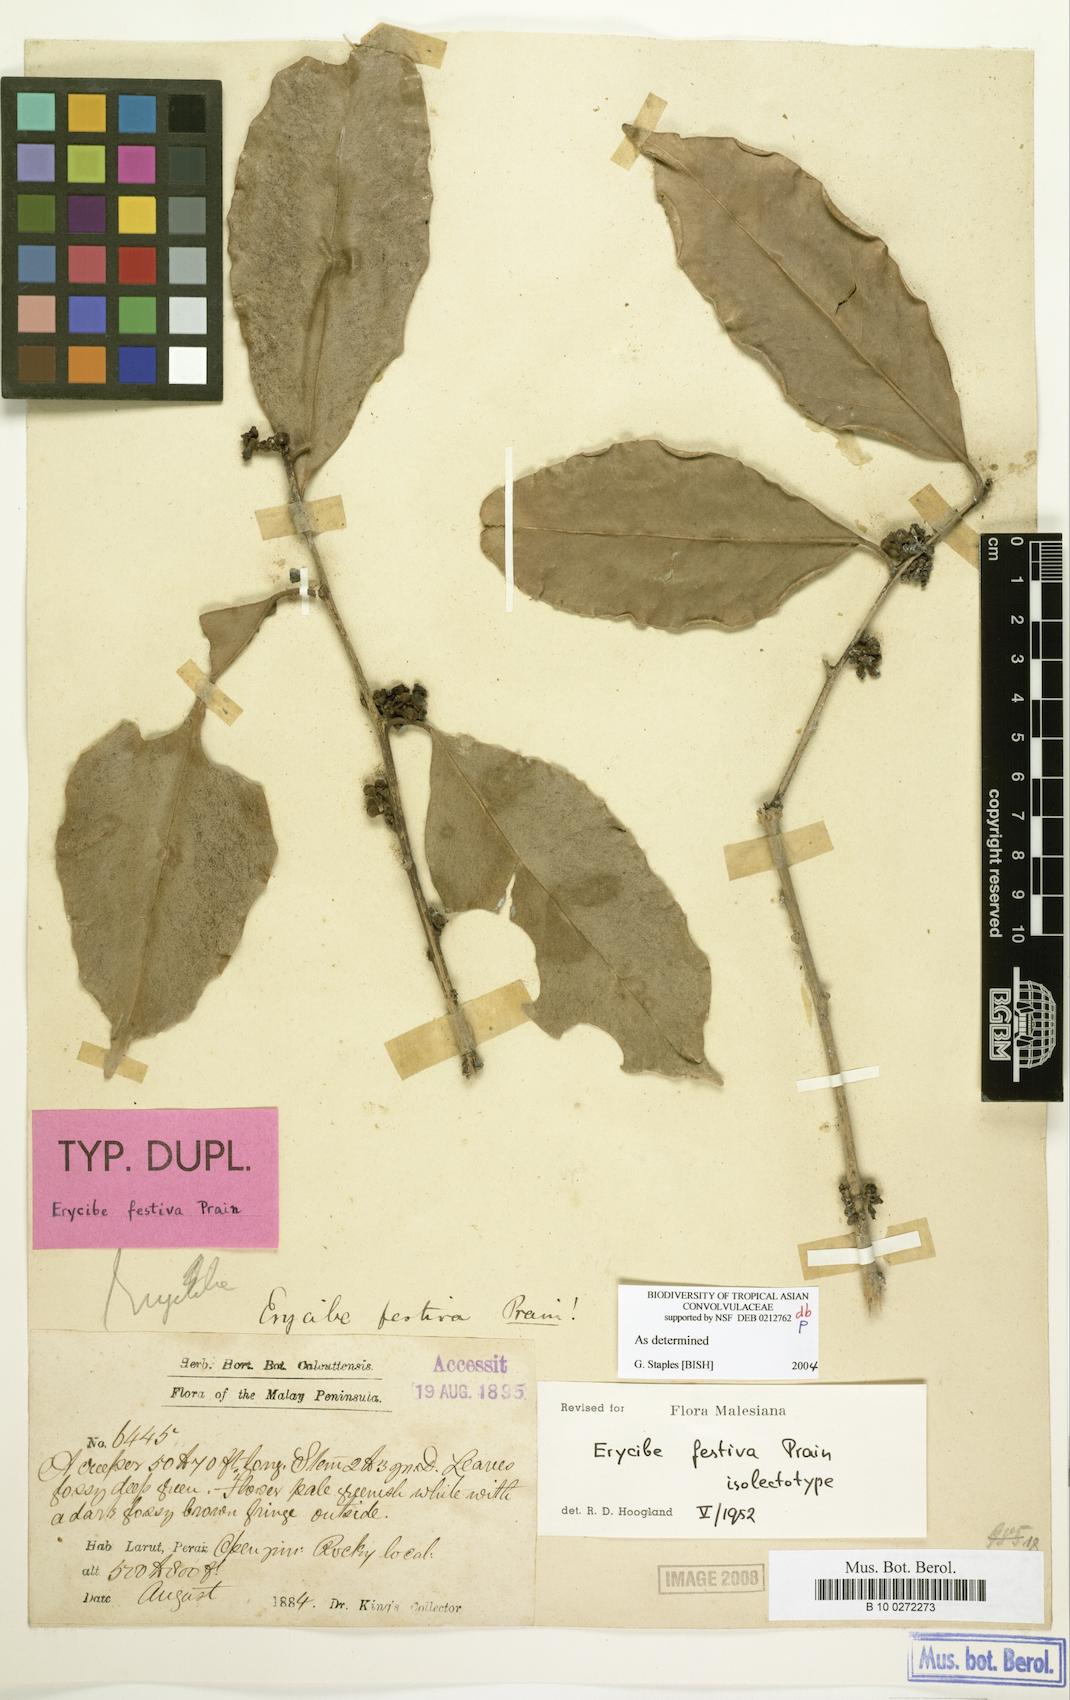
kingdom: Plantae
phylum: Tracheophyta
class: Magnoliopsida
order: Solanales
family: Convolvulaceae
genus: Erycibe
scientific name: Erycibe forbesii
